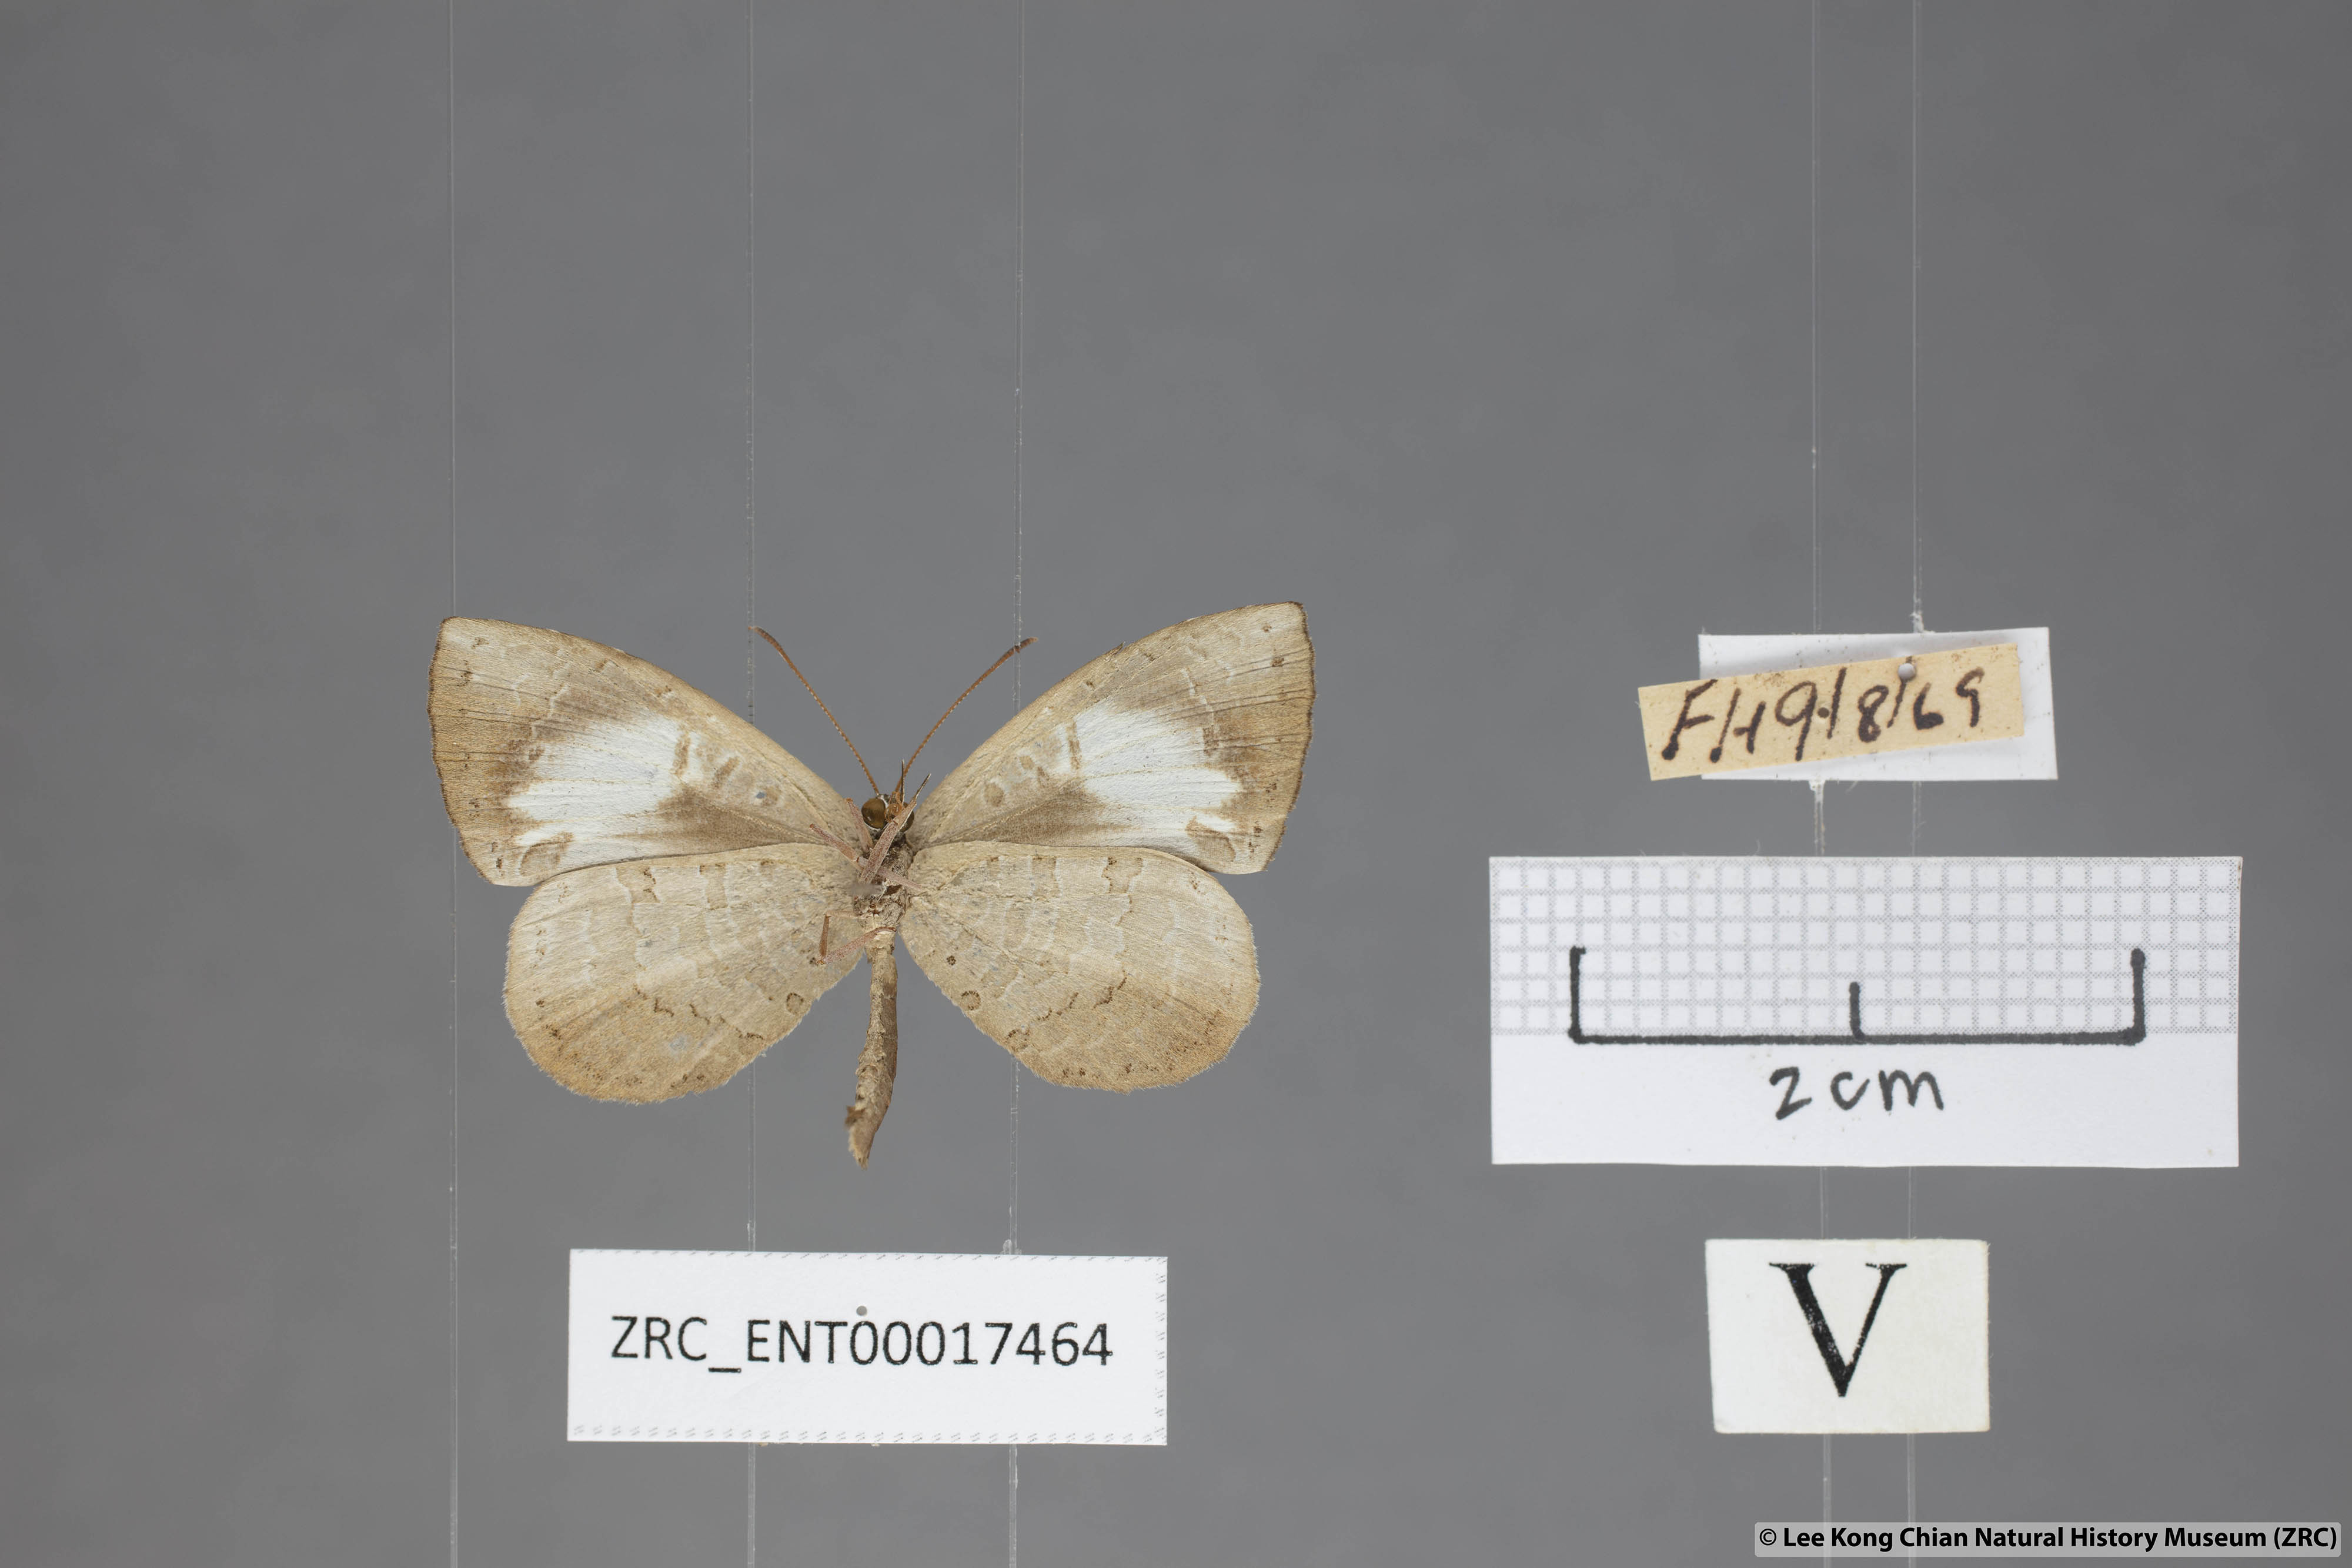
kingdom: Animalia
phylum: Arthropoda
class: Insecta
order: Lepidoptera
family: Lycaenidae
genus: Miletus
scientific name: Miletus nymphis
